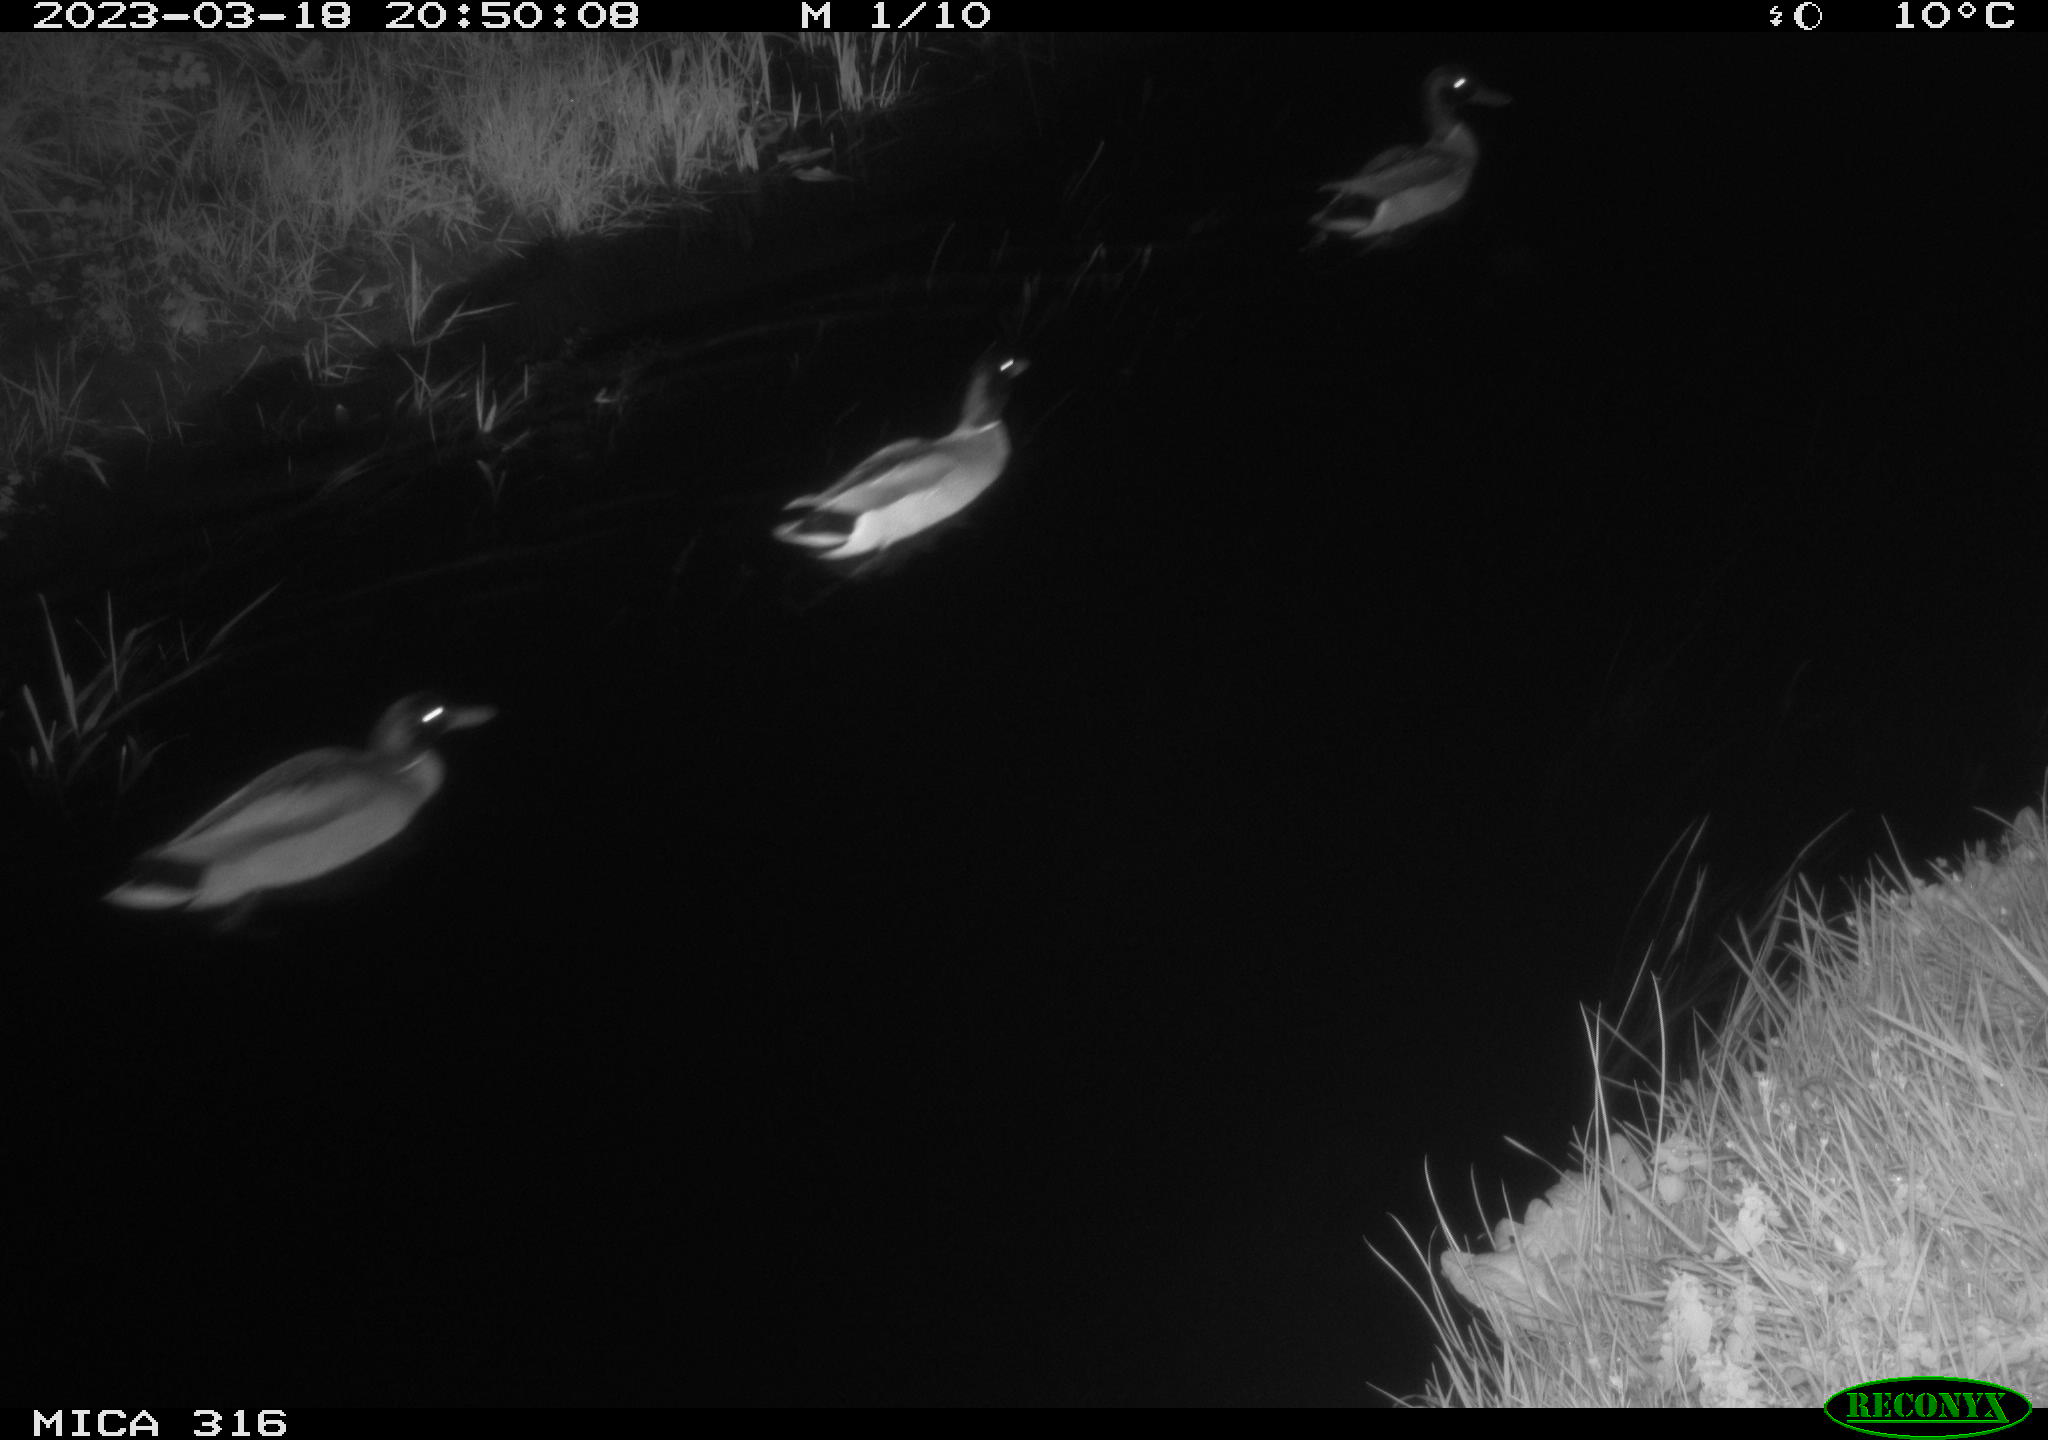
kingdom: Animalia
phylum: Chordata
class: Aves
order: Anseriformes
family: Anatidae
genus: Anas
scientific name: Anas
